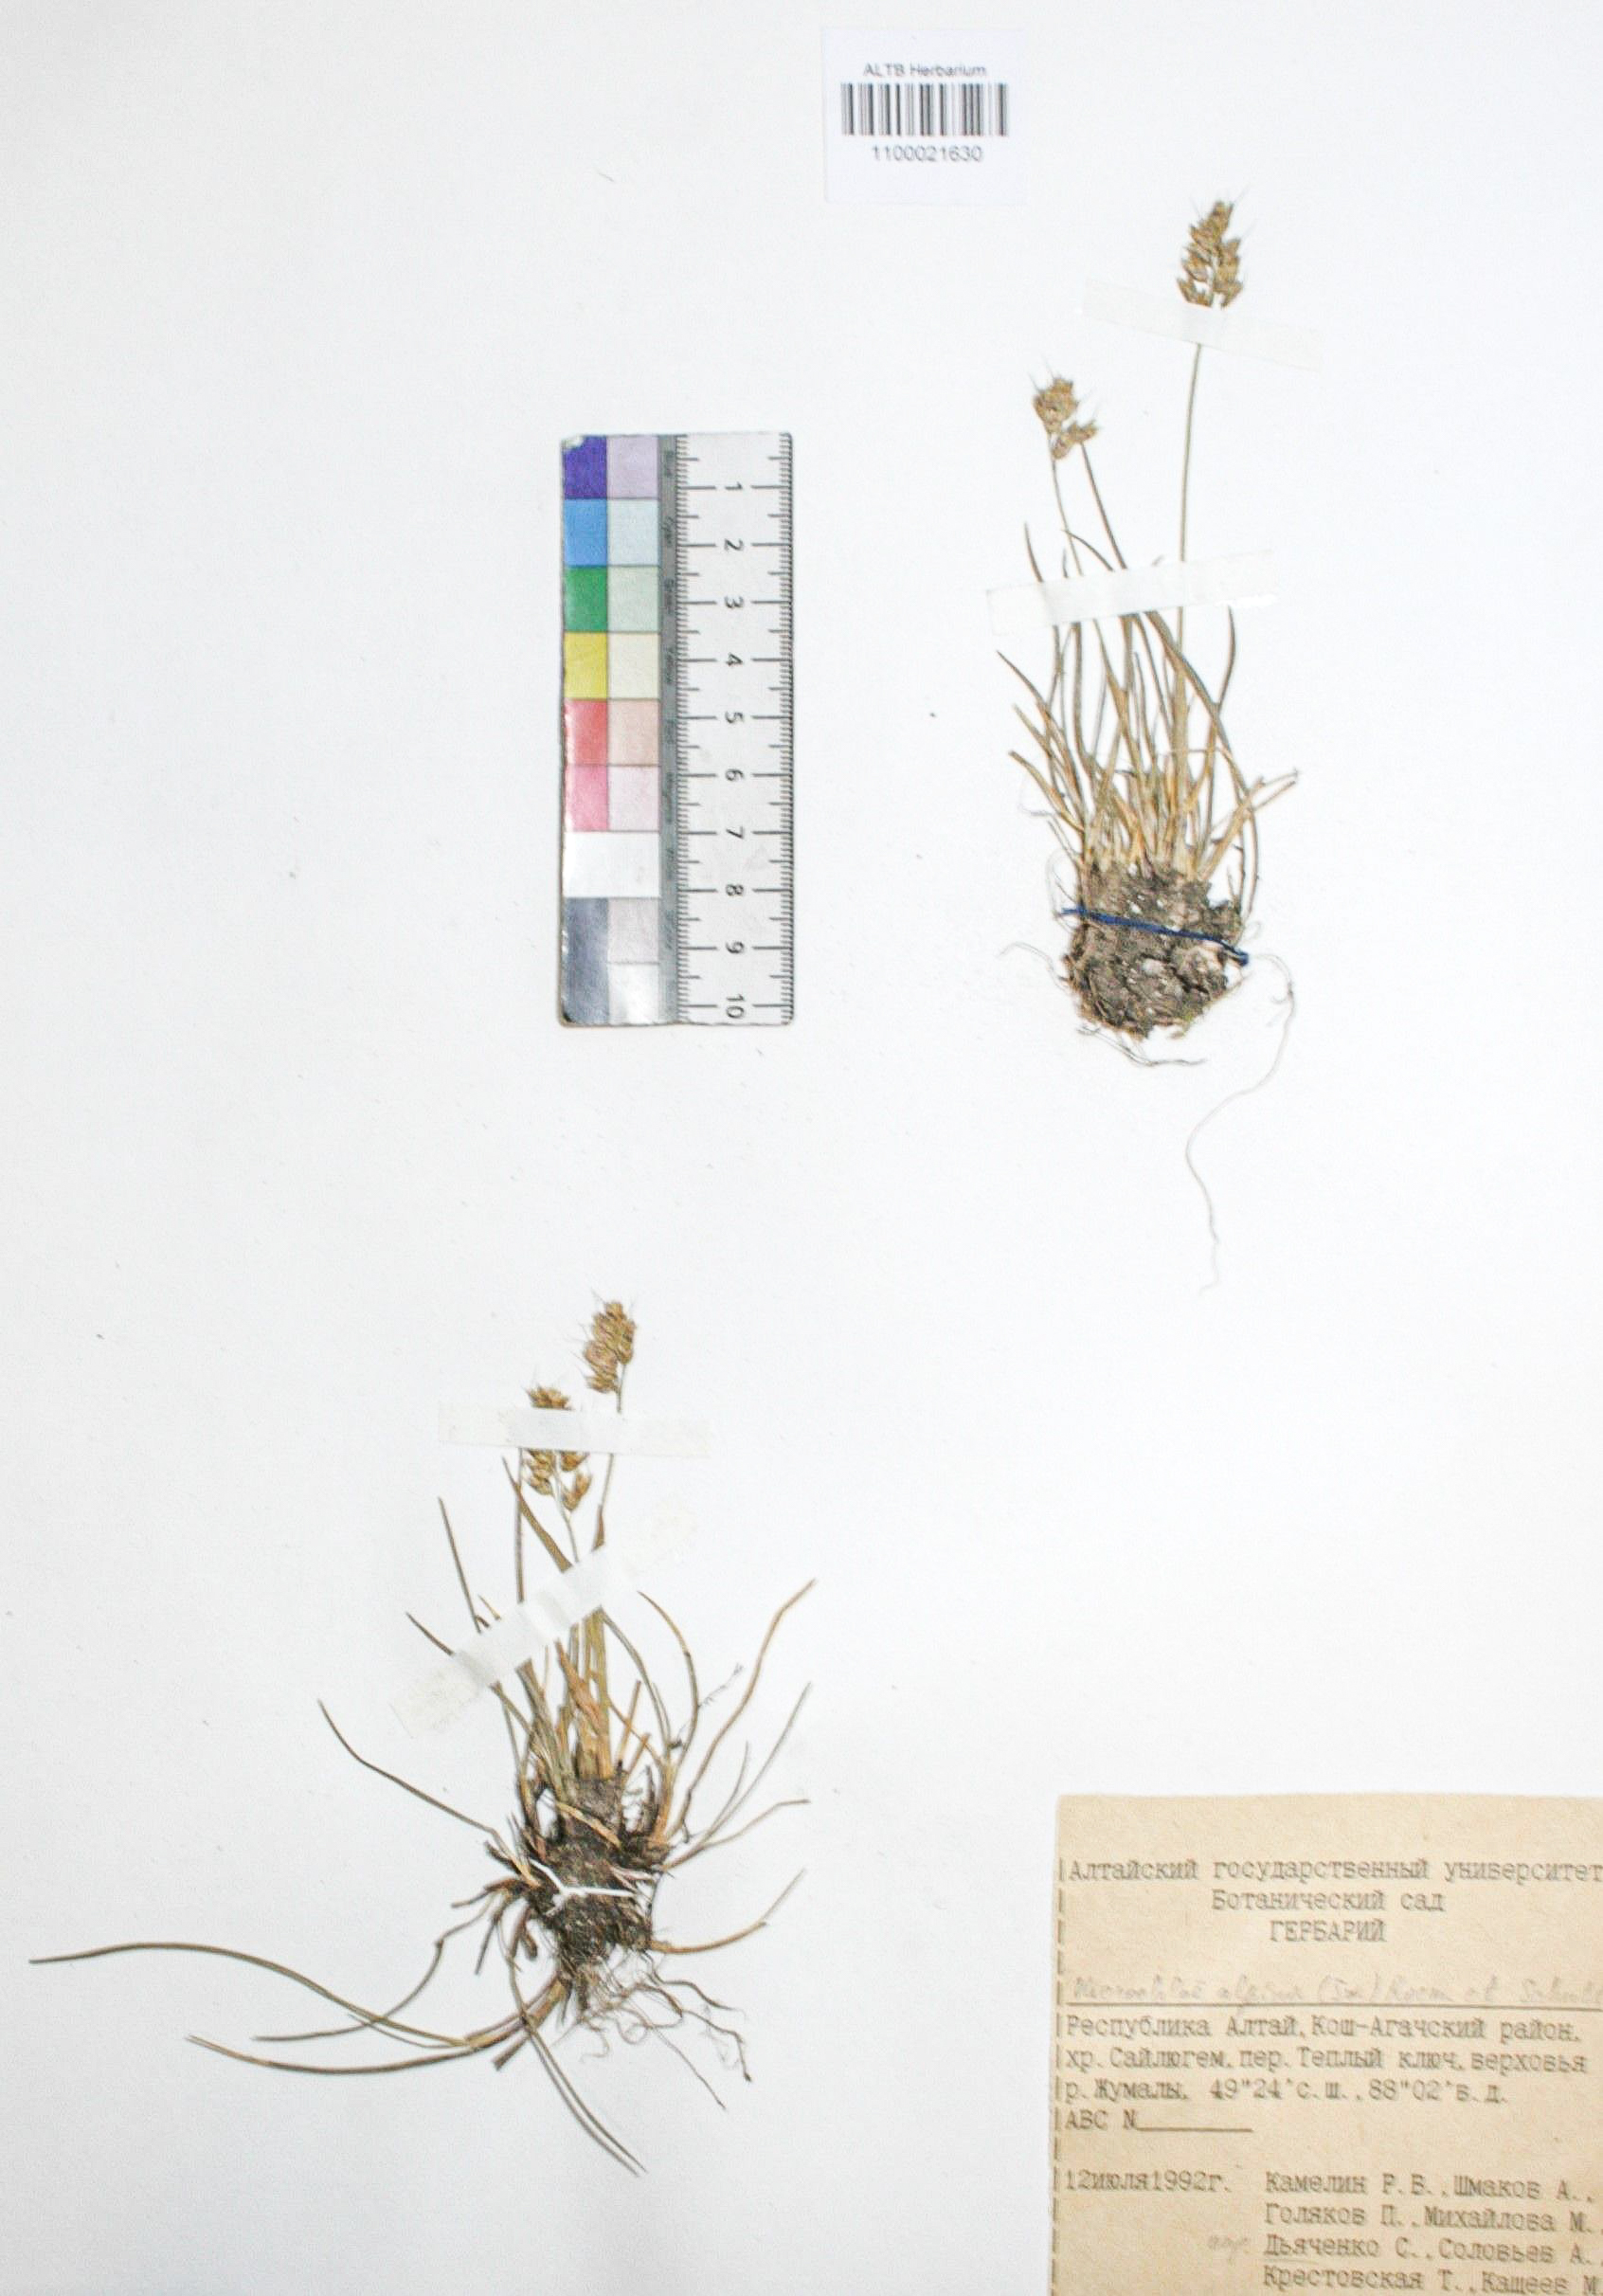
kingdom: Plantae
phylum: Tracheophyta
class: Liliopsida
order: Poales
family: Poaceae
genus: Anthoxanthum
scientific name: Anthoxanthum monticola
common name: Alpine sweetgrass
